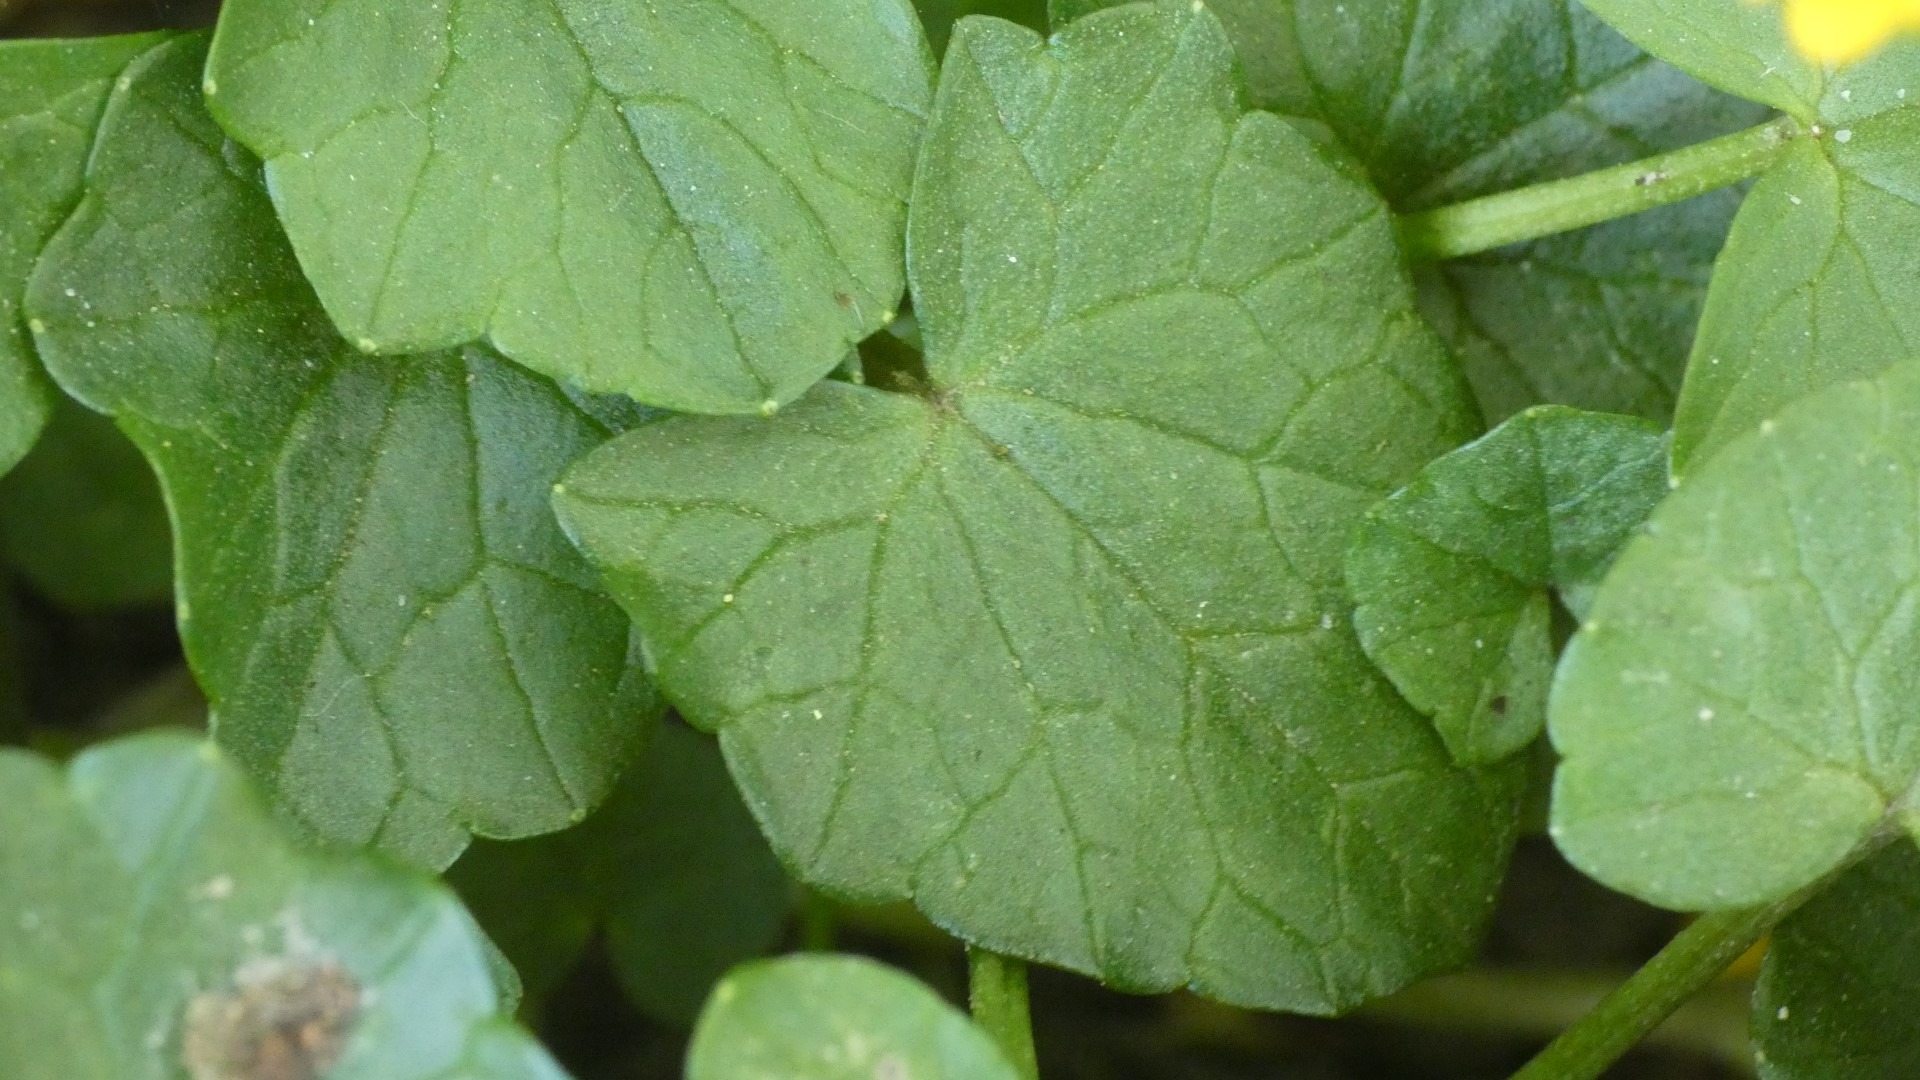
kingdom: Plantae
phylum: Tracheophyta
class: Magnoliopsida
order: Ranunculales
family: Ranunculaceae
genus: Ficaria
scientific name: Ficaria verna
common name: Vorterod
